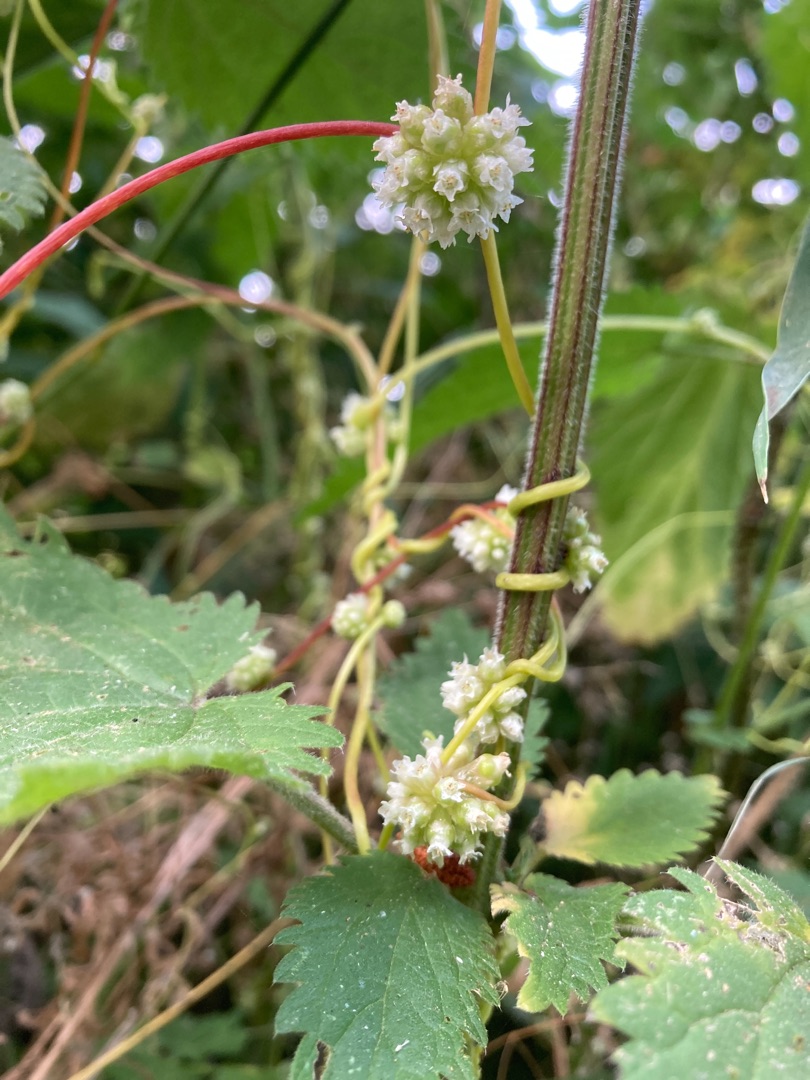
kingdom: Plantae
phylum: Tracheophyta
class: Magnoliopsida
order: Solanales
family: Convolvulaceae
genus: Cuscuta
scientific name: Cuscuta europaea
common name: Nælde-silke
